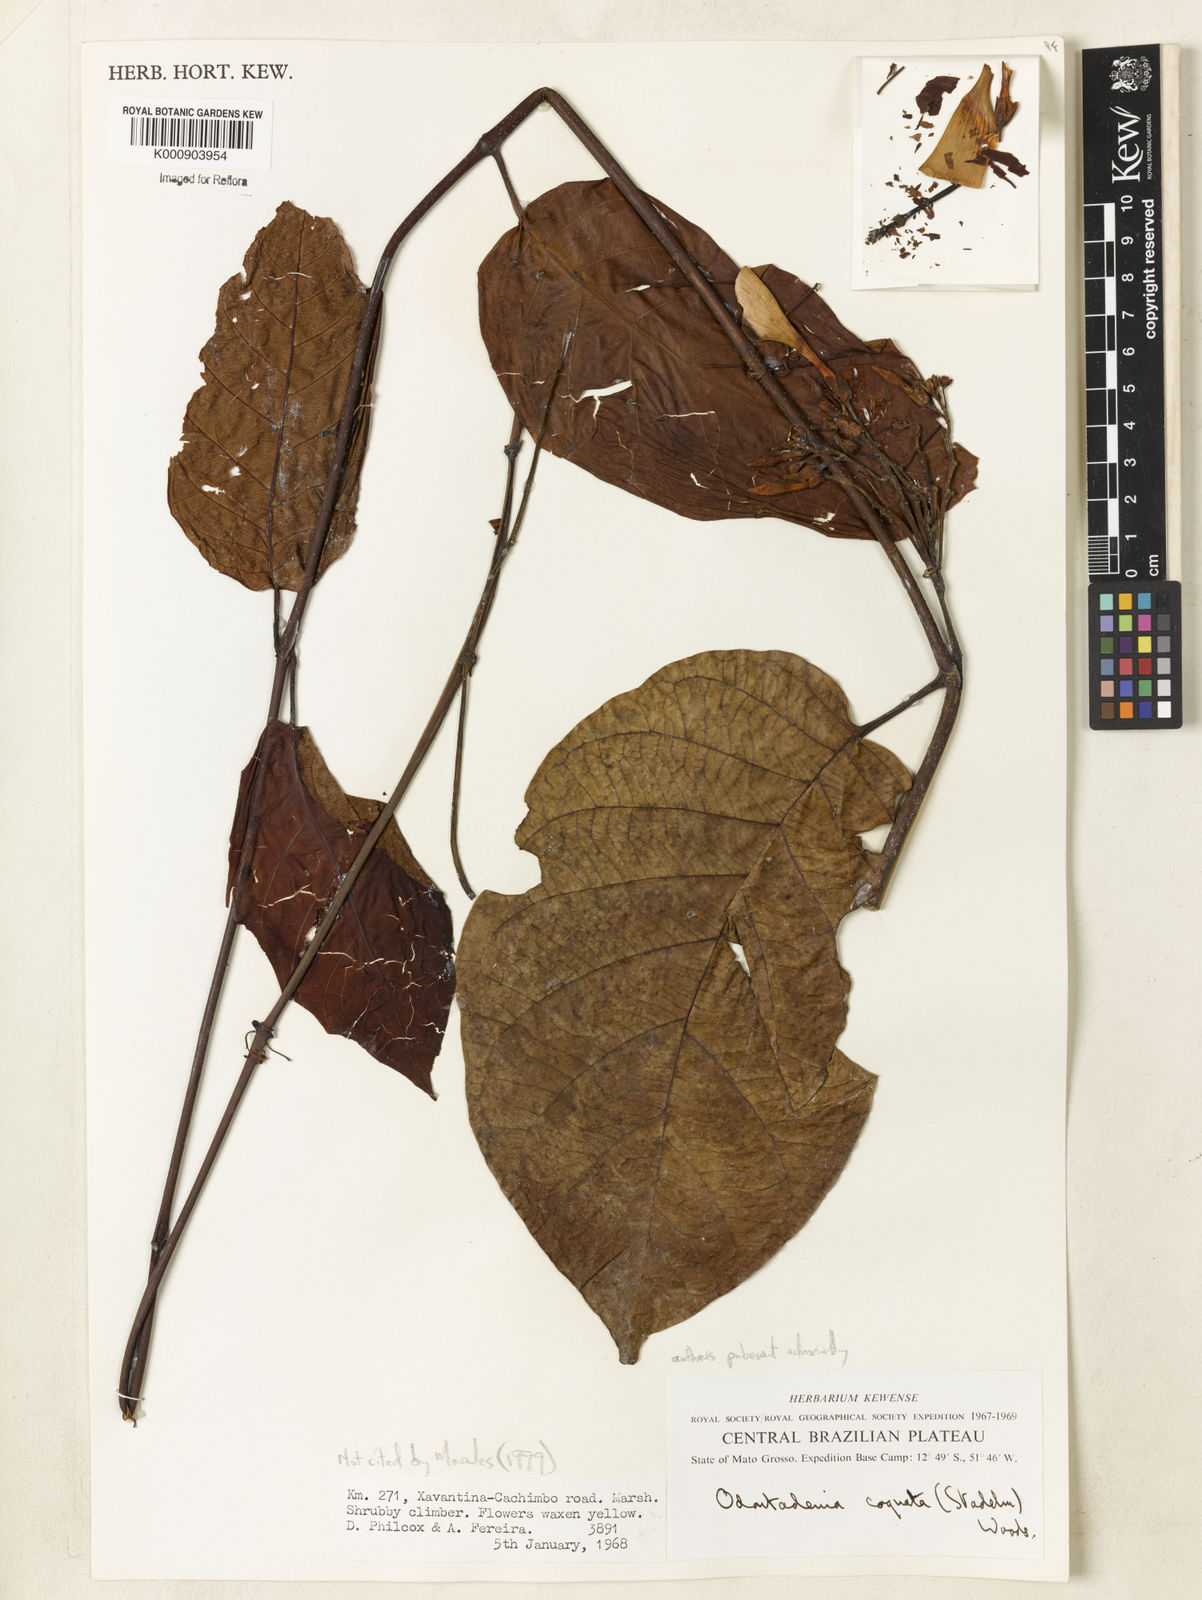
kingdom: Plantae
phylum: Tracheophyta
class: Magnoliopsida
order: Gentianales
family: Apocynaceae
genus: Odontadenia
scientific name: Odontadenia verrucosa
